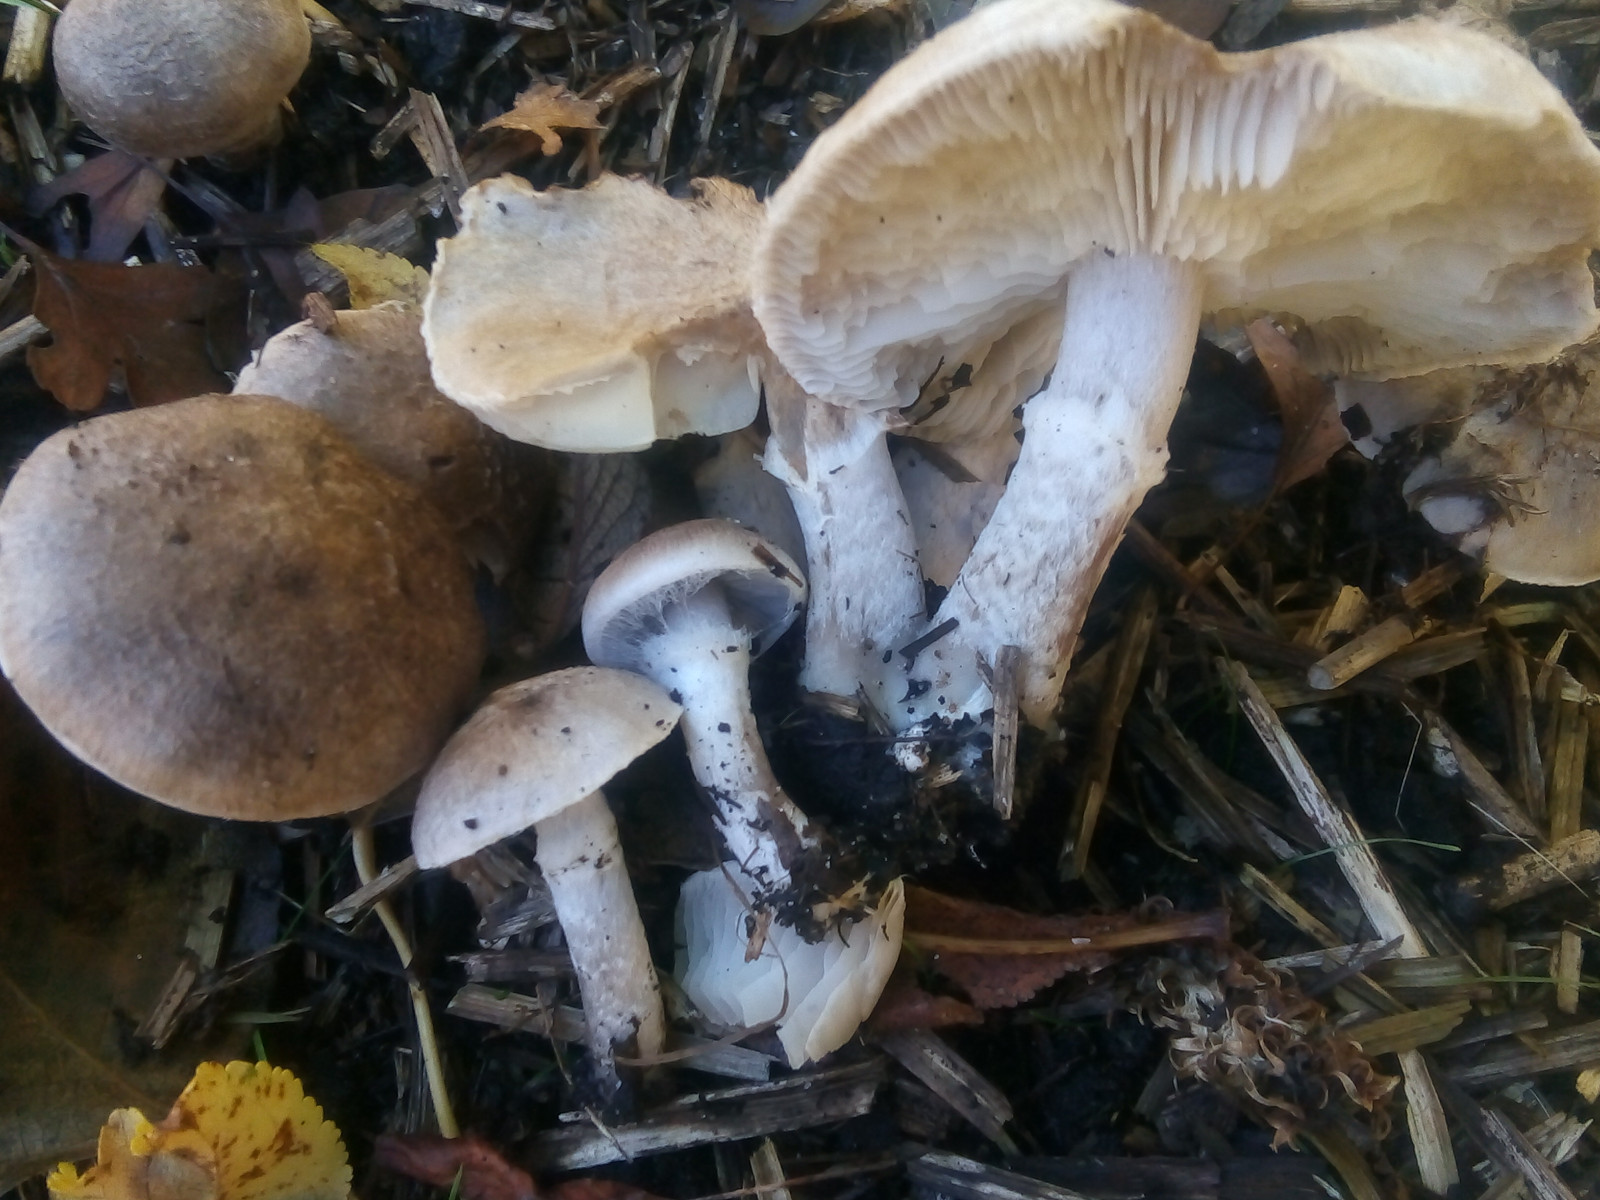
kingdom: Fungi
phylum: Basidiomycota
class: Agaricomycetes
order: Agaricales
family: Tricholomataceae
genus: Tricholoma
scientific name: Tricholoma cingulatum
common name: ring-ridderhat
